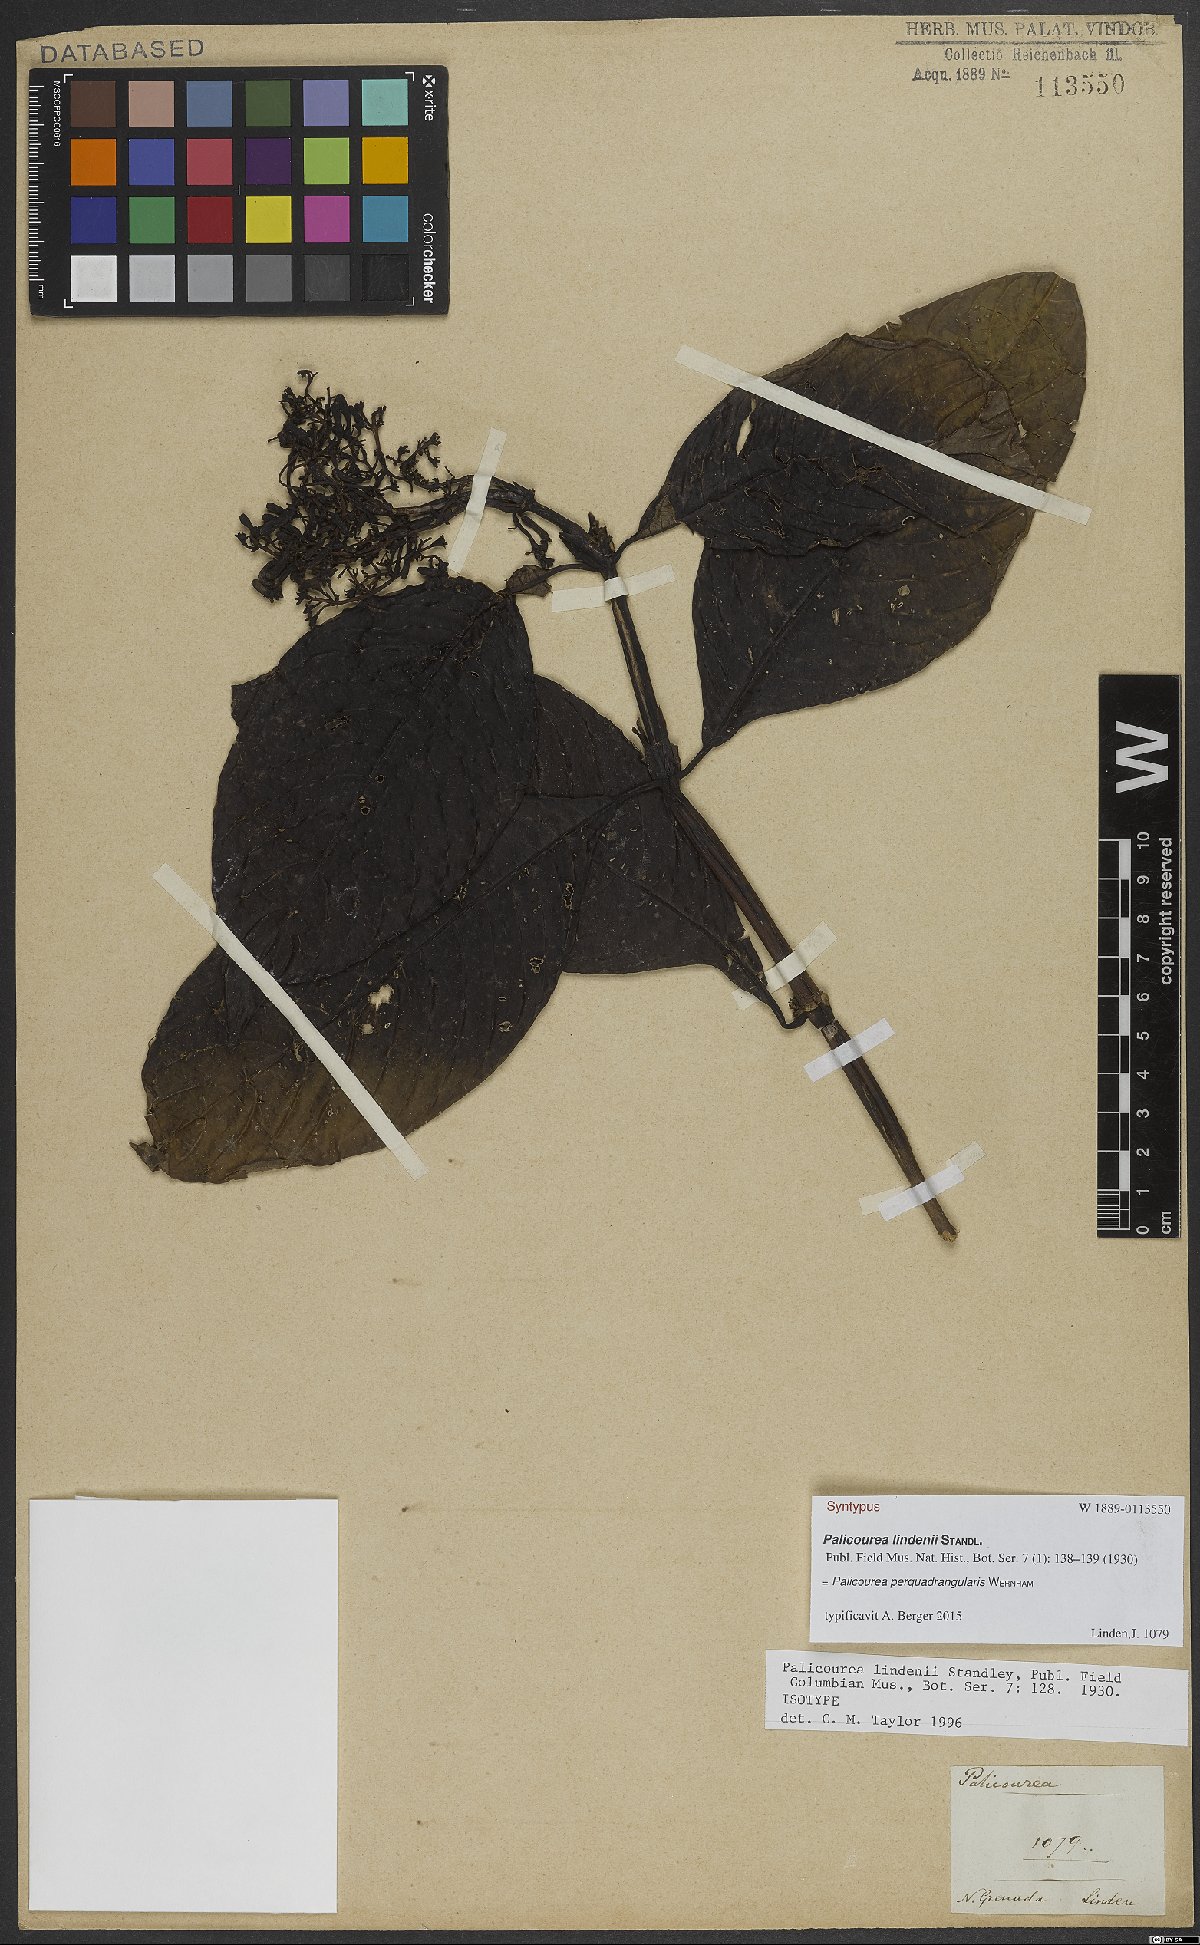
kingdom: Plantae
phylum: Tracheophyta
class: Magnoliopsida
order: Gentianales
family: Rubiaceae
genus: Palicourea
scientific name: Palicourea perquadrangularis
